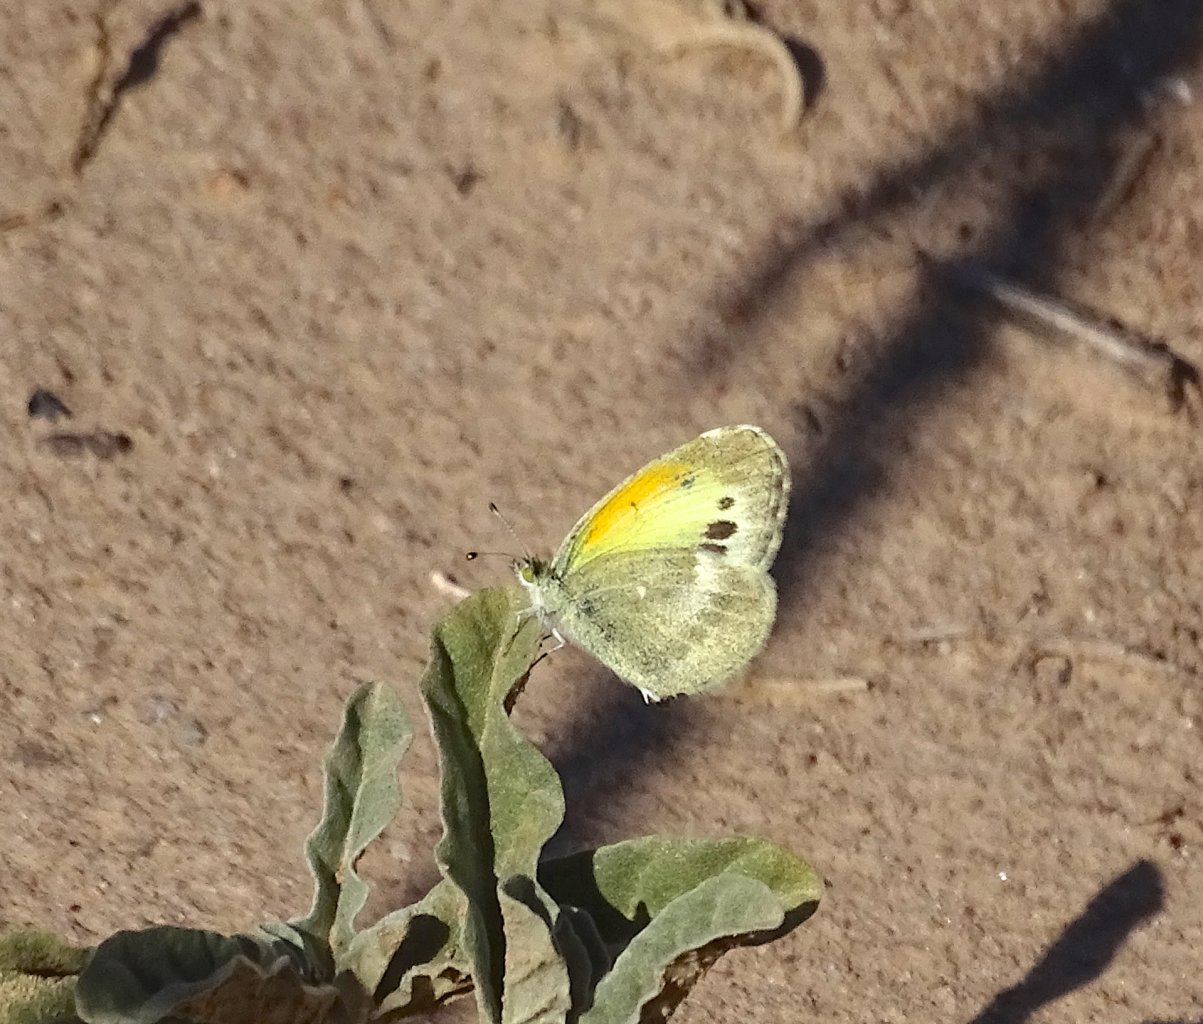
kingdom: Animalia
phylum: Arthropoda
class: Insecta
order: Lepidoptera
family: Pieridae
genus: Nathalis
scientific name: Nathalis iole
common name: Dainty Sulphur
